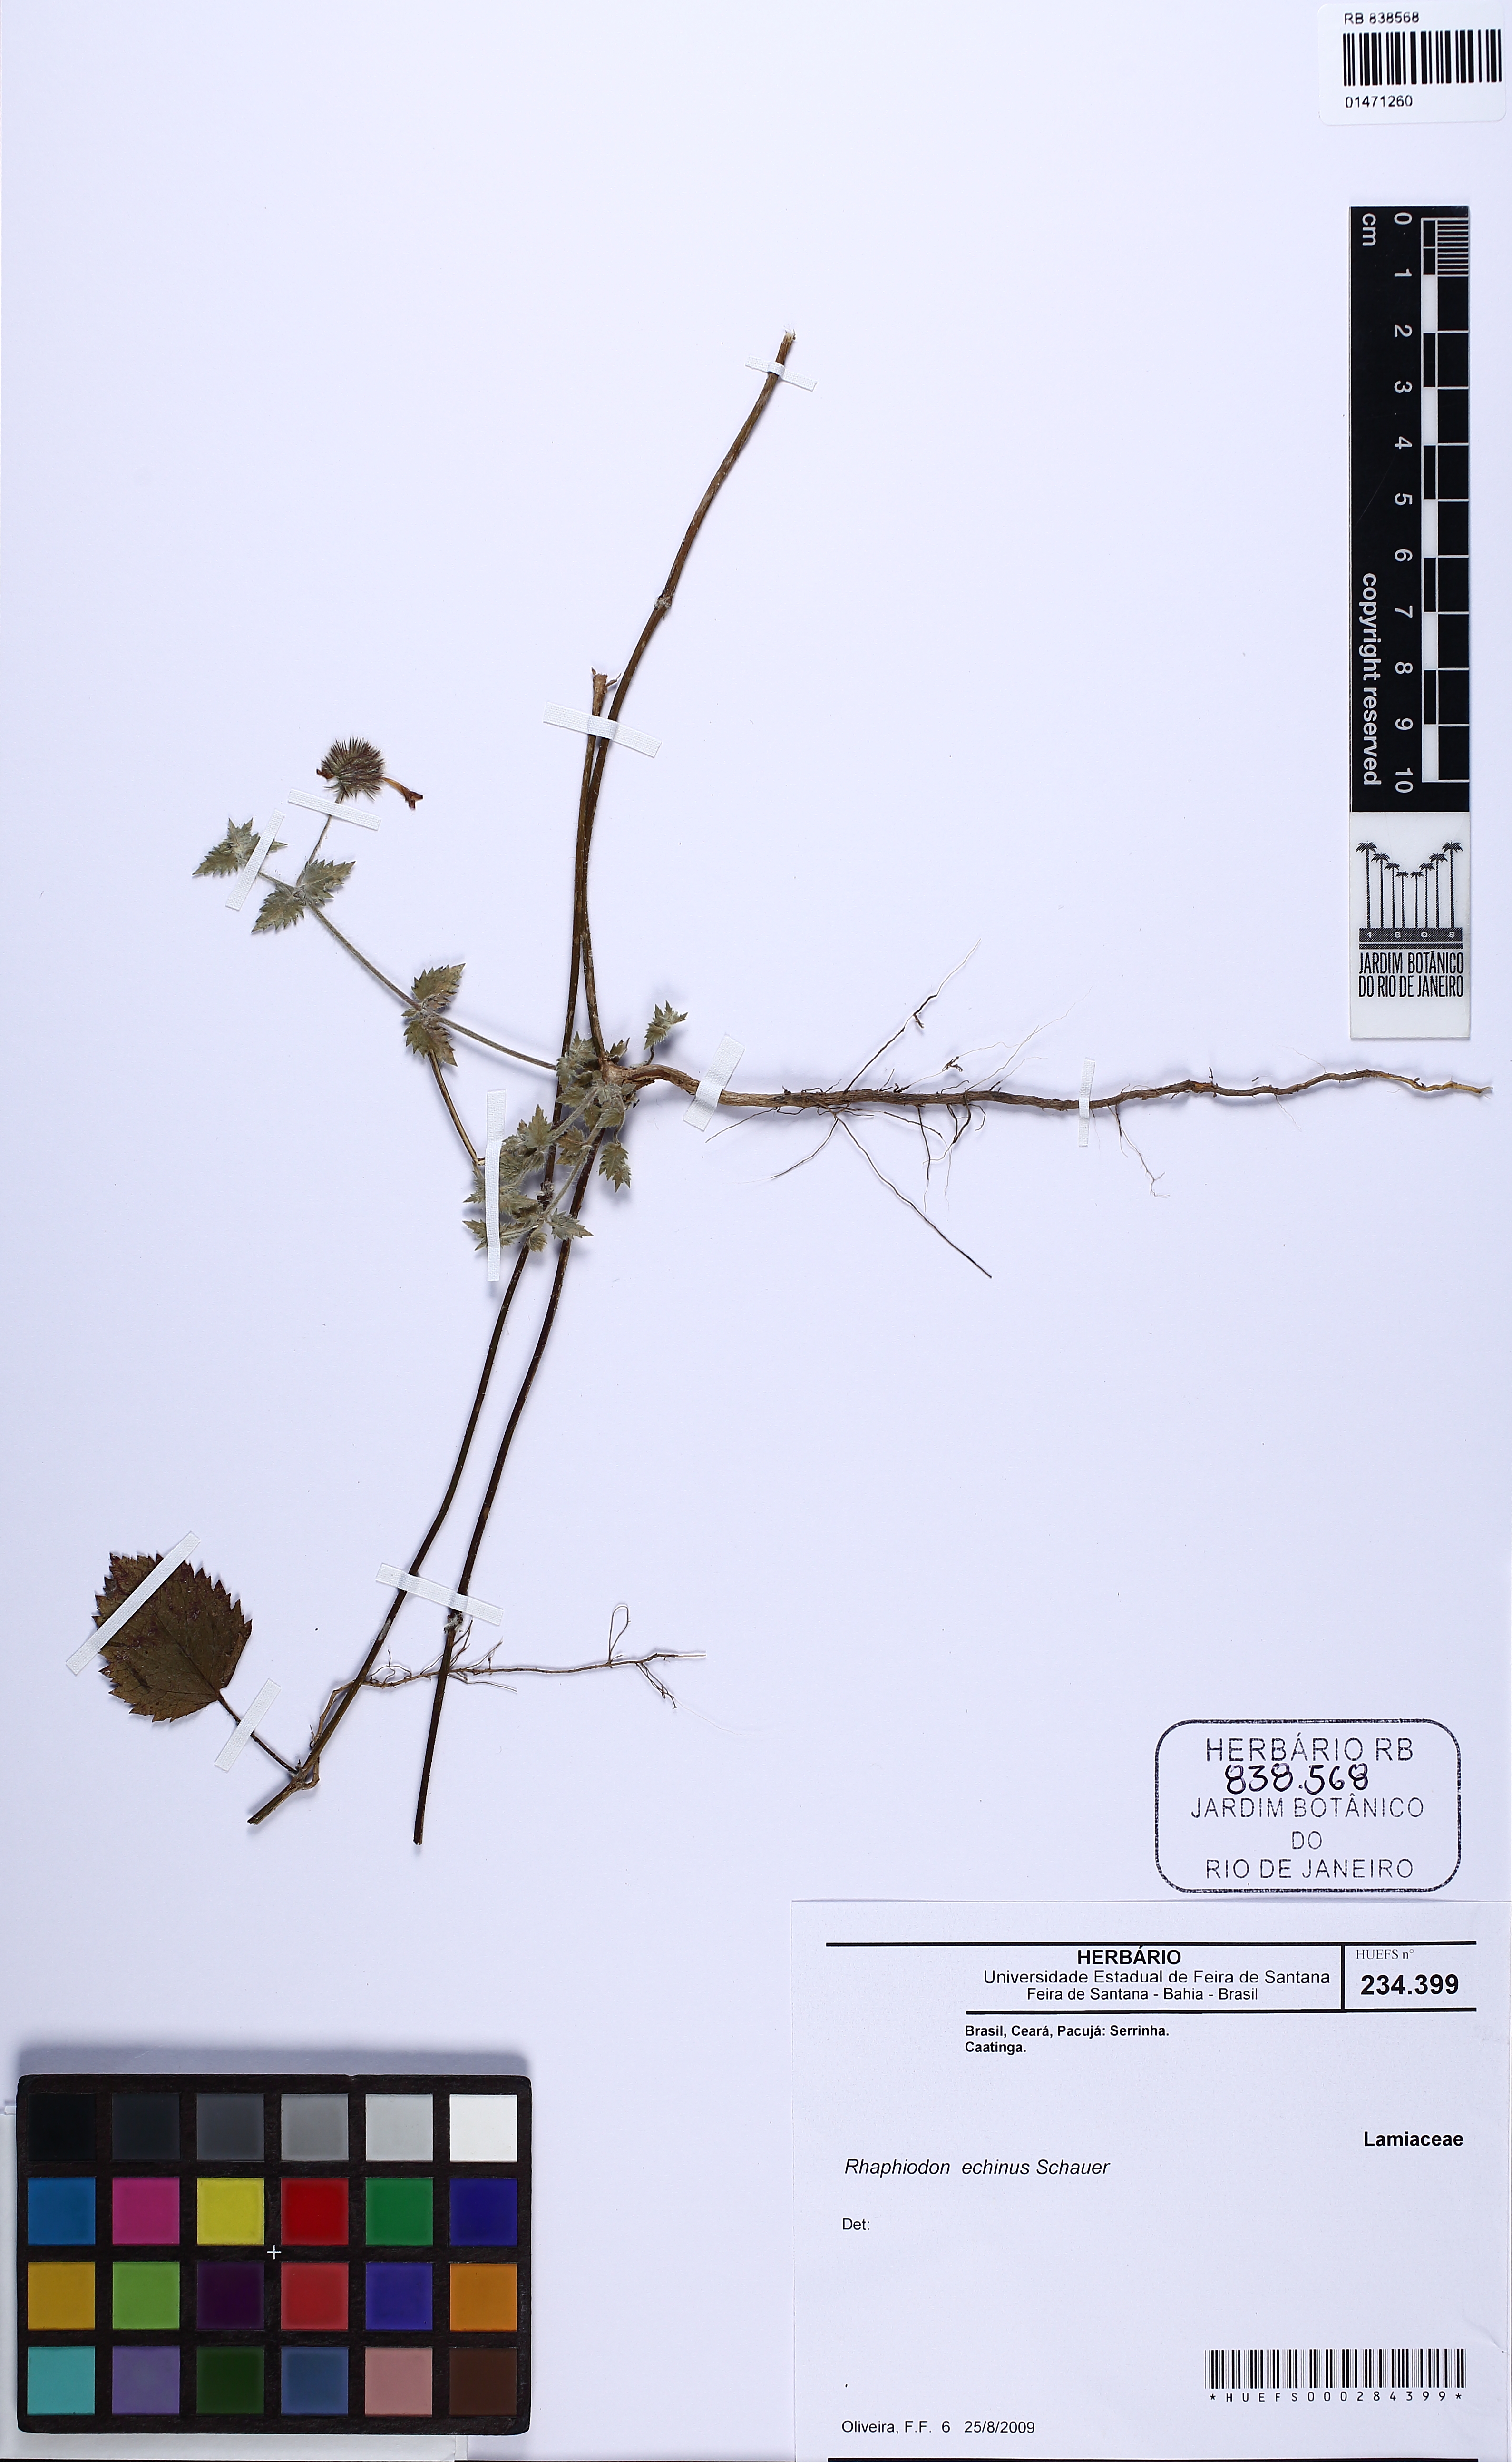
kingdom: Plantae
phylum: Tracheophyta
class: Magnoliopsida
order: Lamiales
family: Lamiaceae
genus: Rhaphiodon
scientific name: Rhaphiodon echinus
